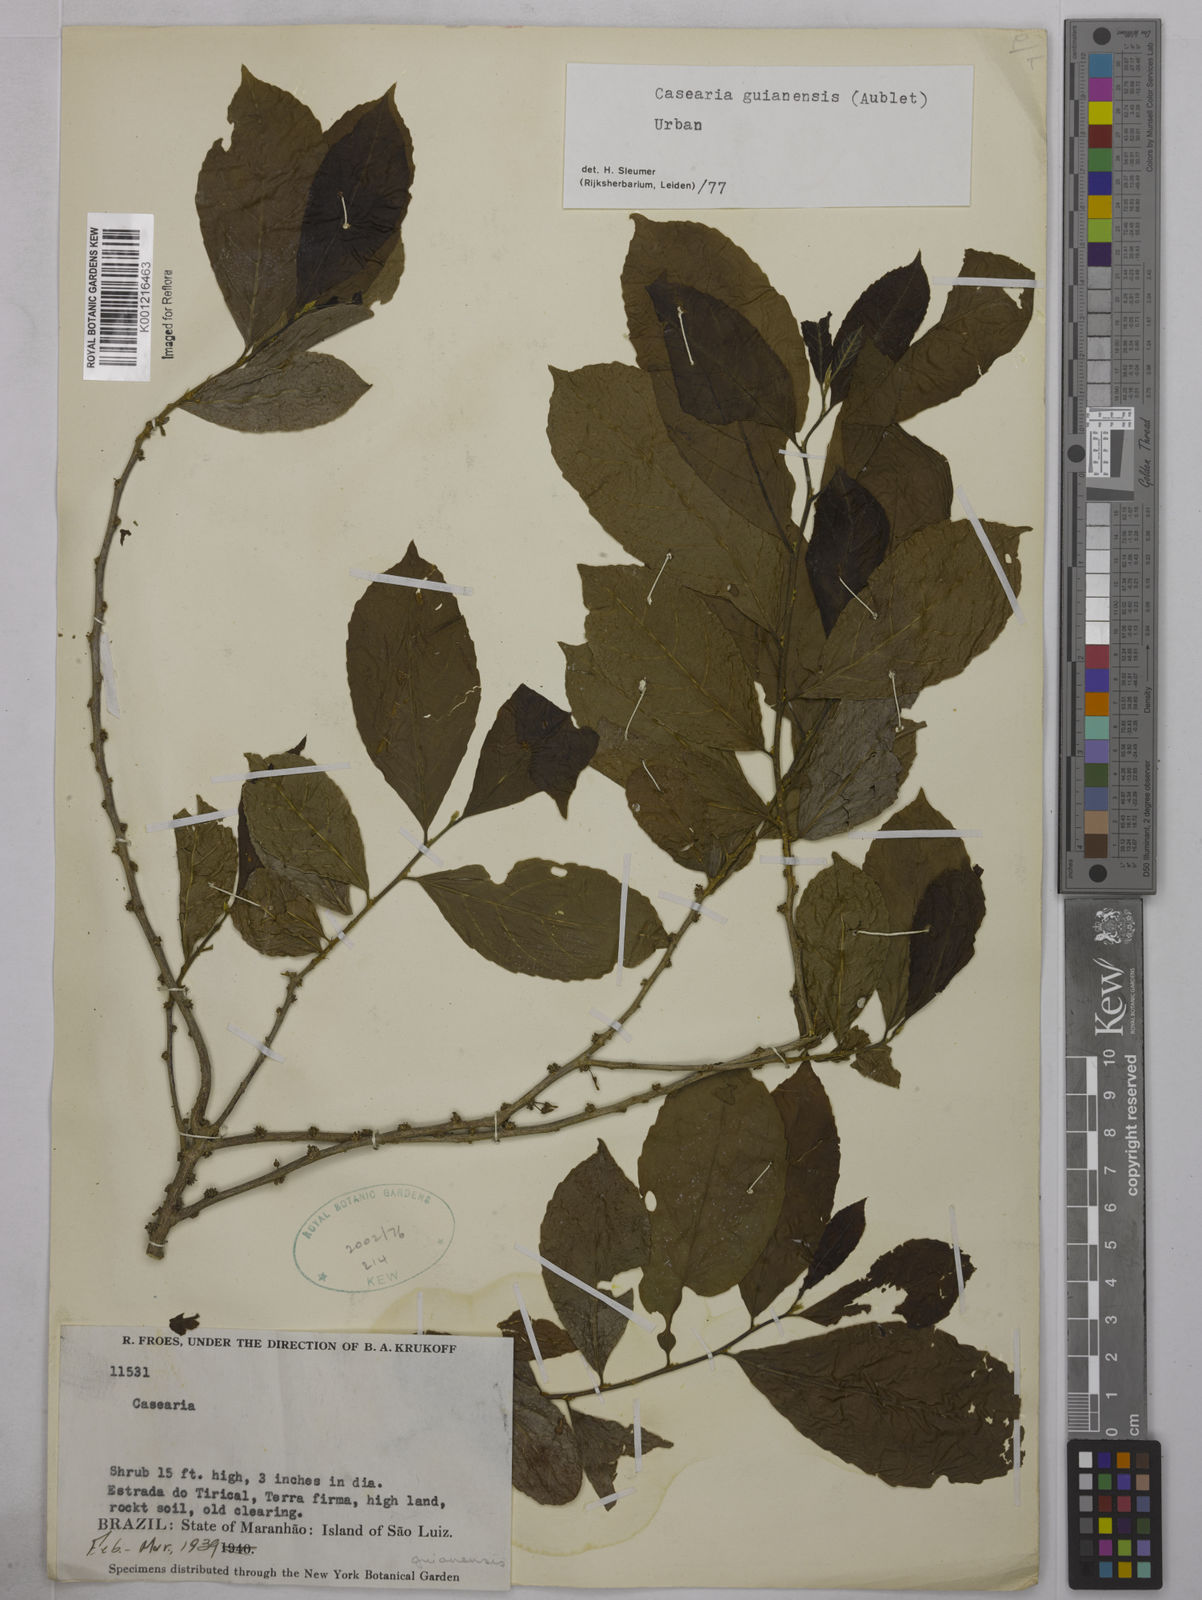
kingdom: Plantae
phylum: Tracheophyta
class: Magnoliopsida
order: Malpighiales
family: Salicaceae
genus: Casearia
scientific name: Casearia guianensis
